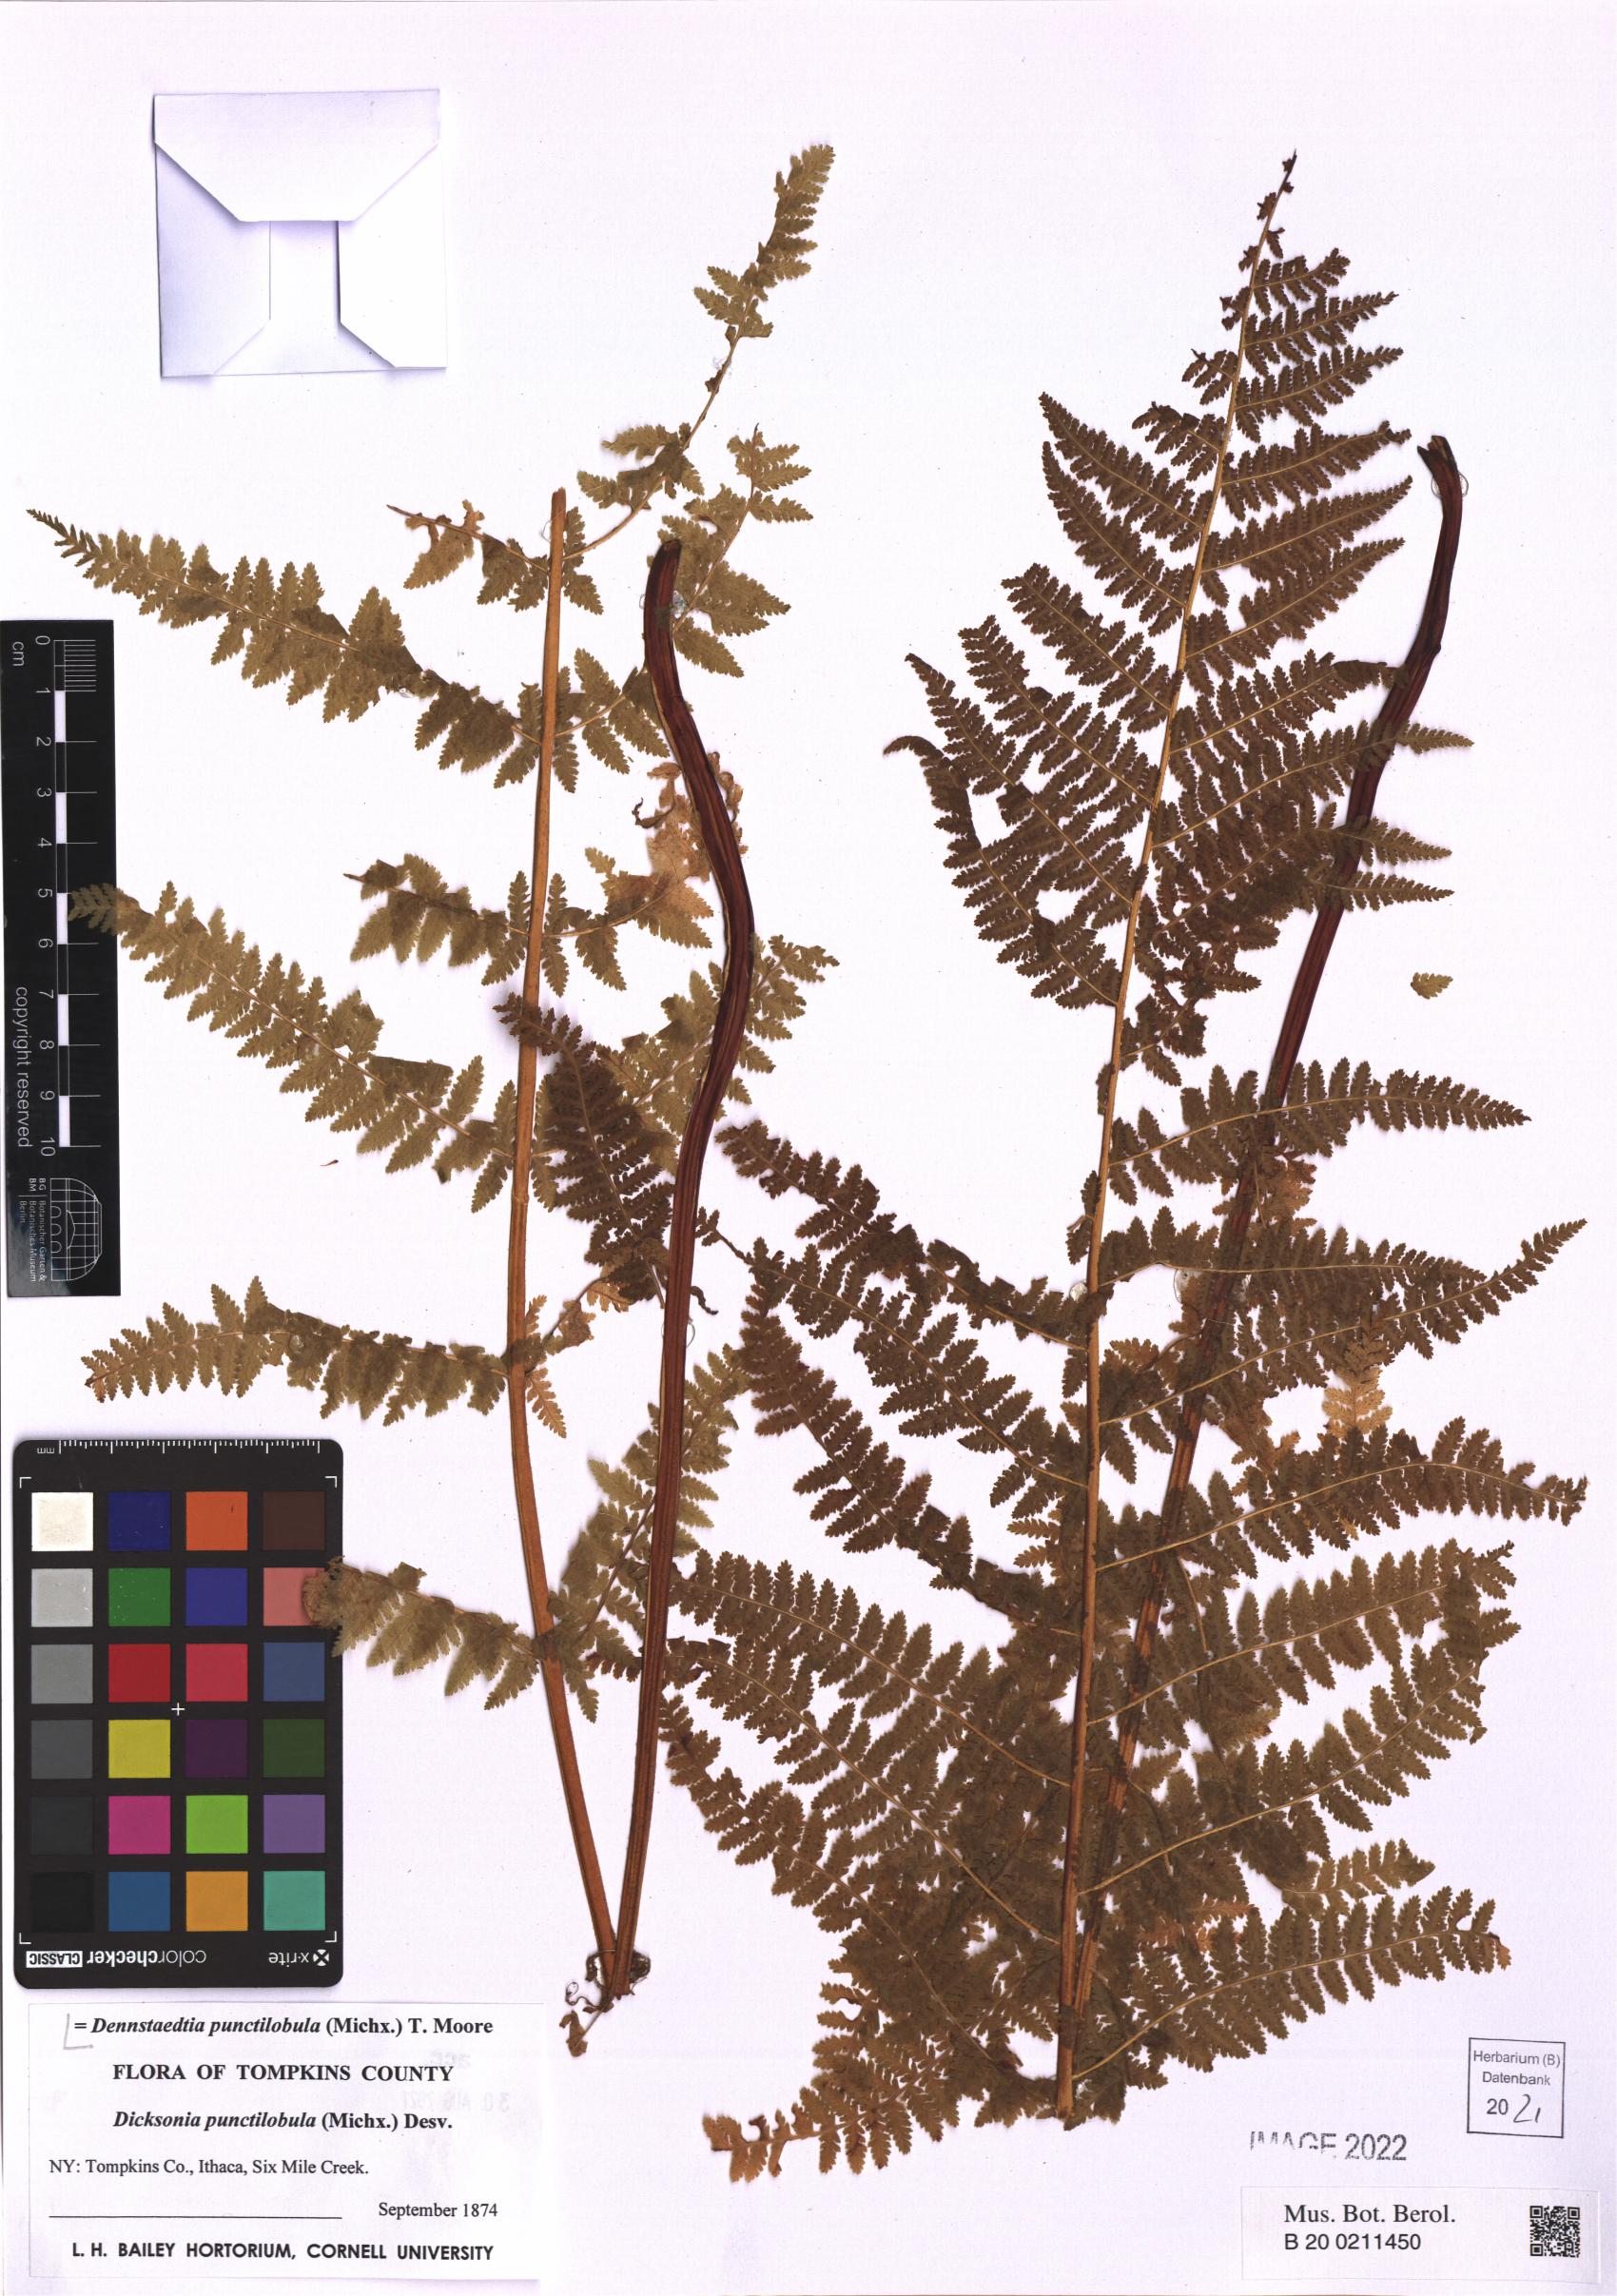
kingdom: Plantae
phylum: Tracheophyta
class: Polypodiopsida
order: Polypodiales
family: Dennstaedtiaceae
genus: Sitobolium
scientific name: Sitobolium punctilobum
